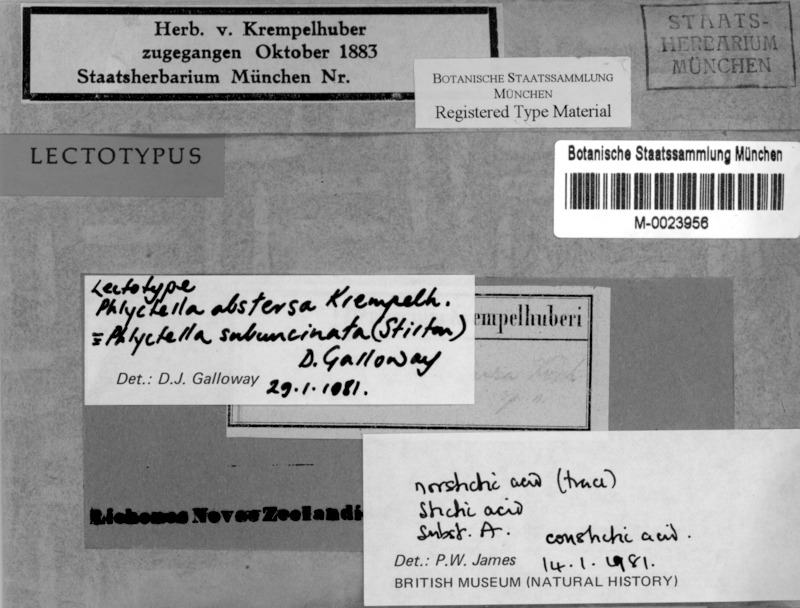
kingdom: Fungi
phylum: Ascomycota
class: Lecanoromycetes
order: Ostropales
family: Phlyctidaceae
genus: Phlyctis
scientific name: Phlyctis subuncinata
